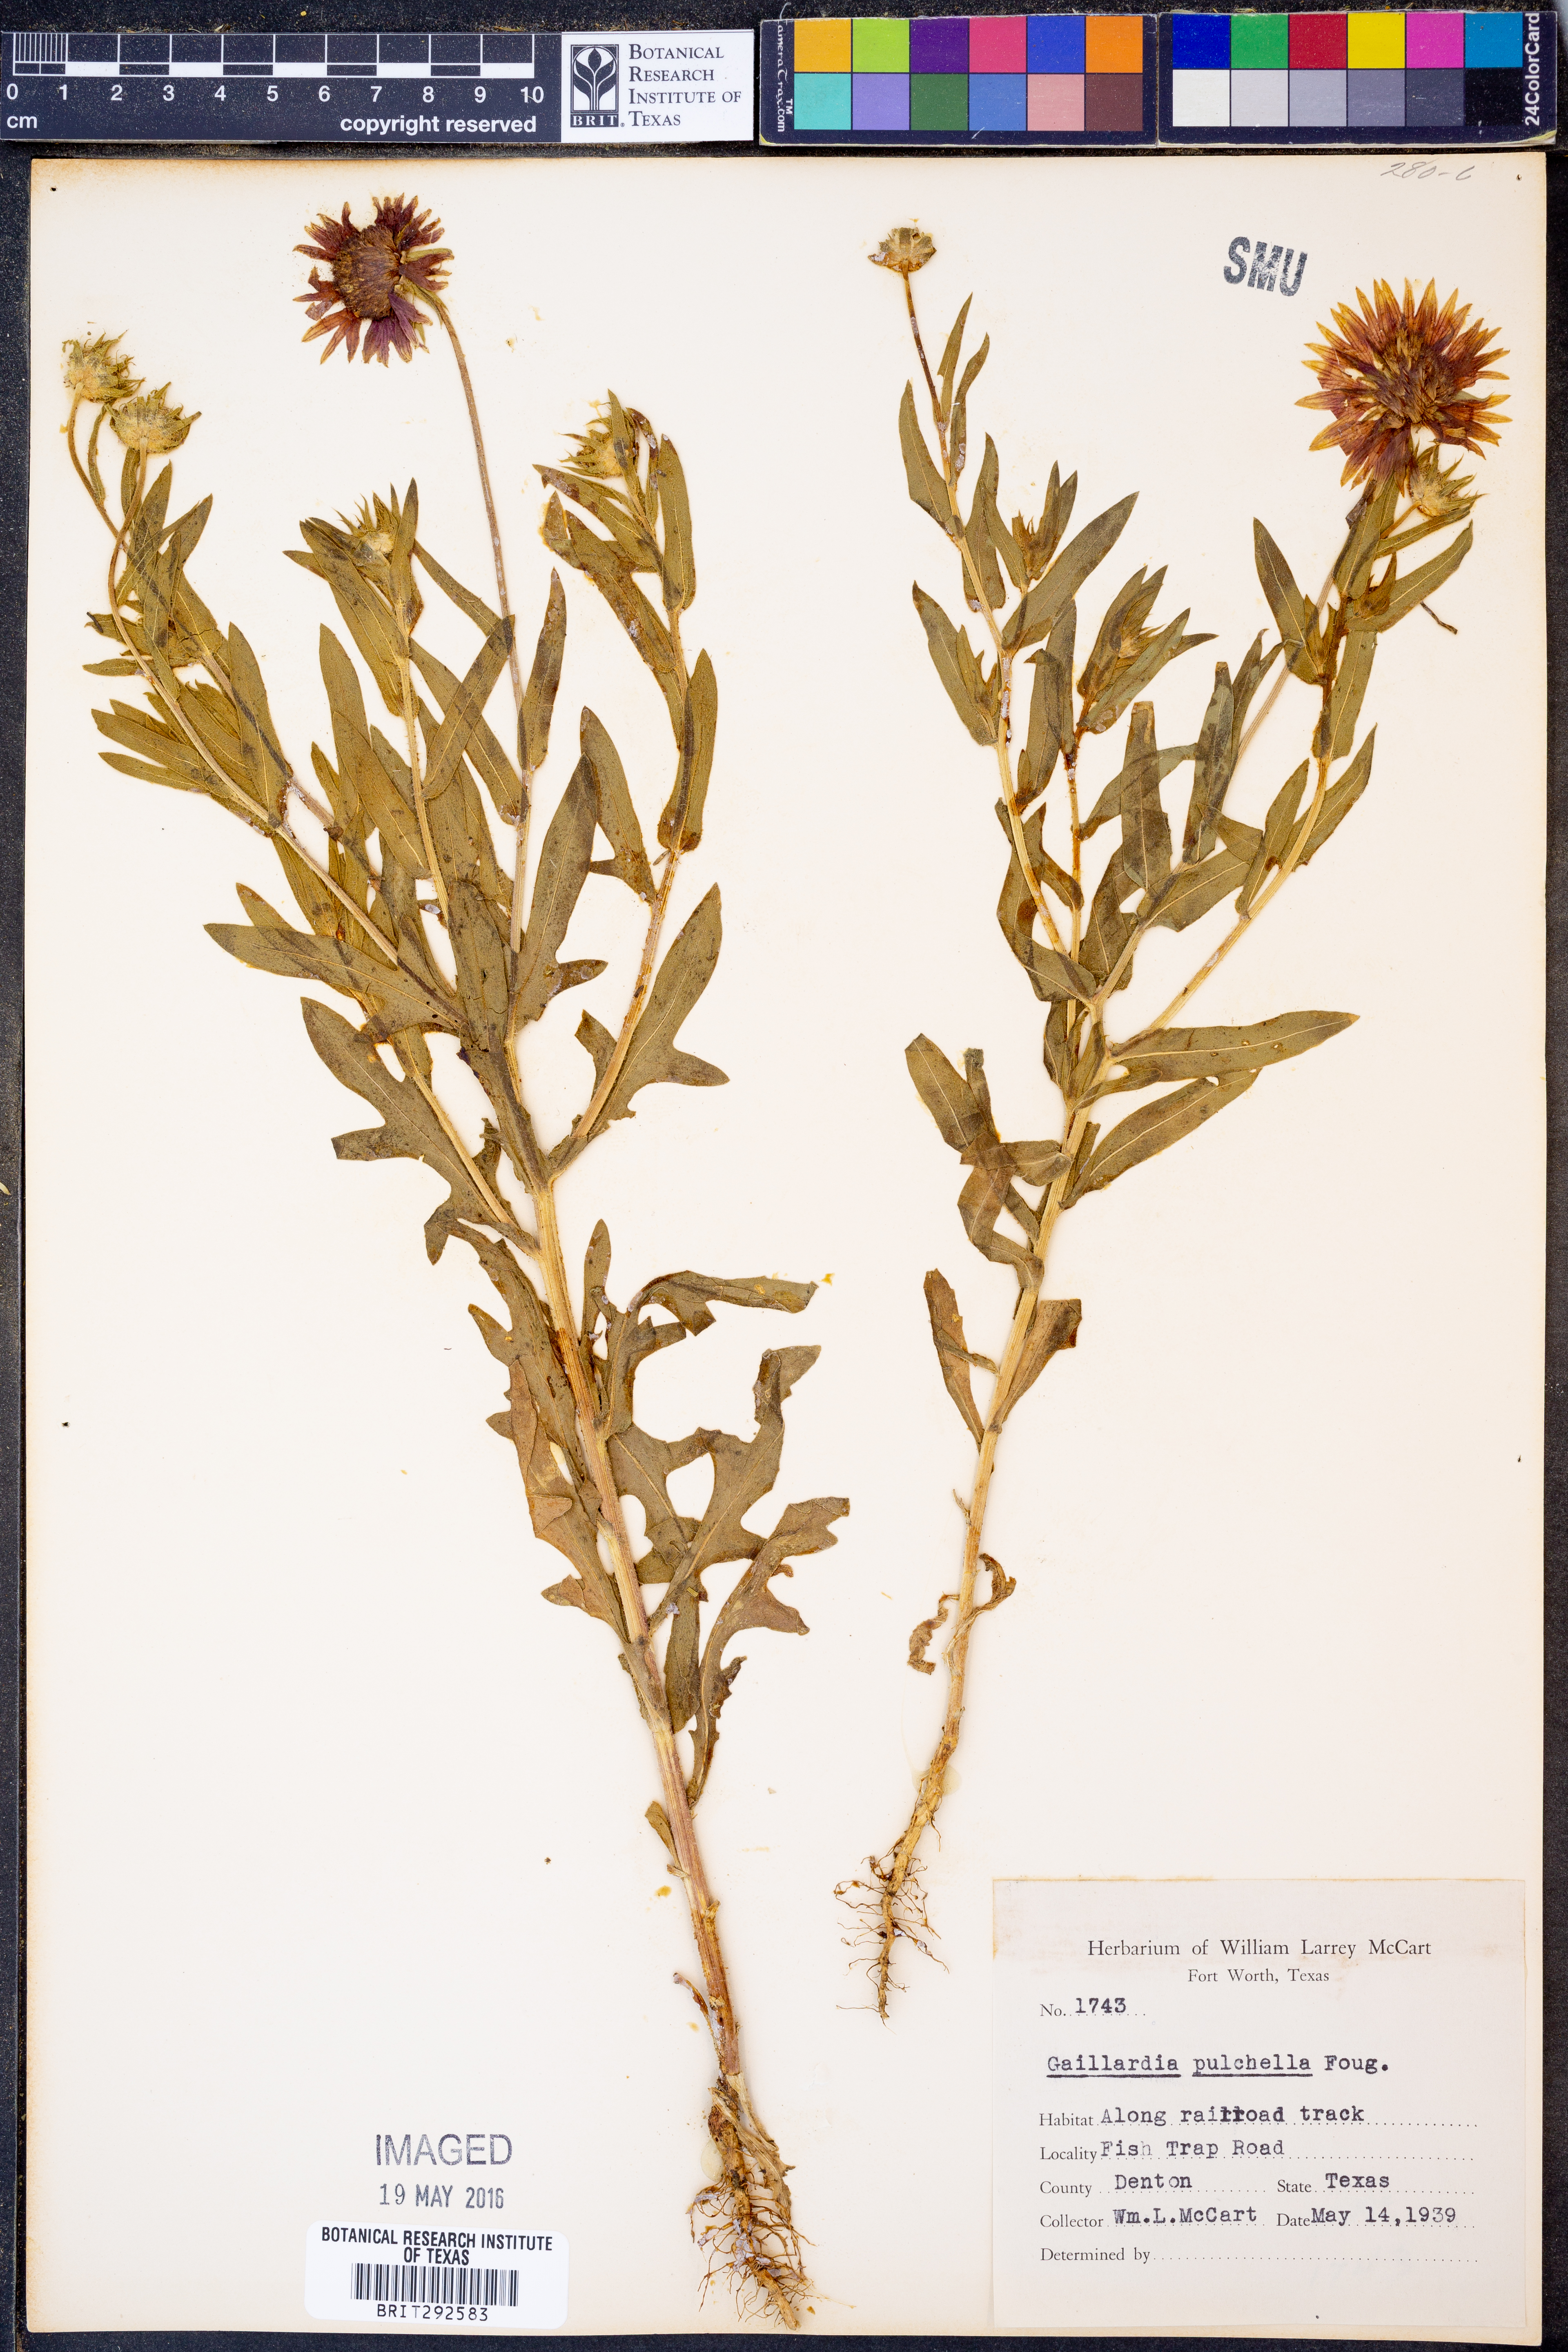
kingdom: Plantae
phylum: Tracheophyta
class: Magnoliopsida
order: Asterales
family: Asteraceae
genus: Gaillardia
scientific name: Gaillardia pulchella
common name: Firewheel
